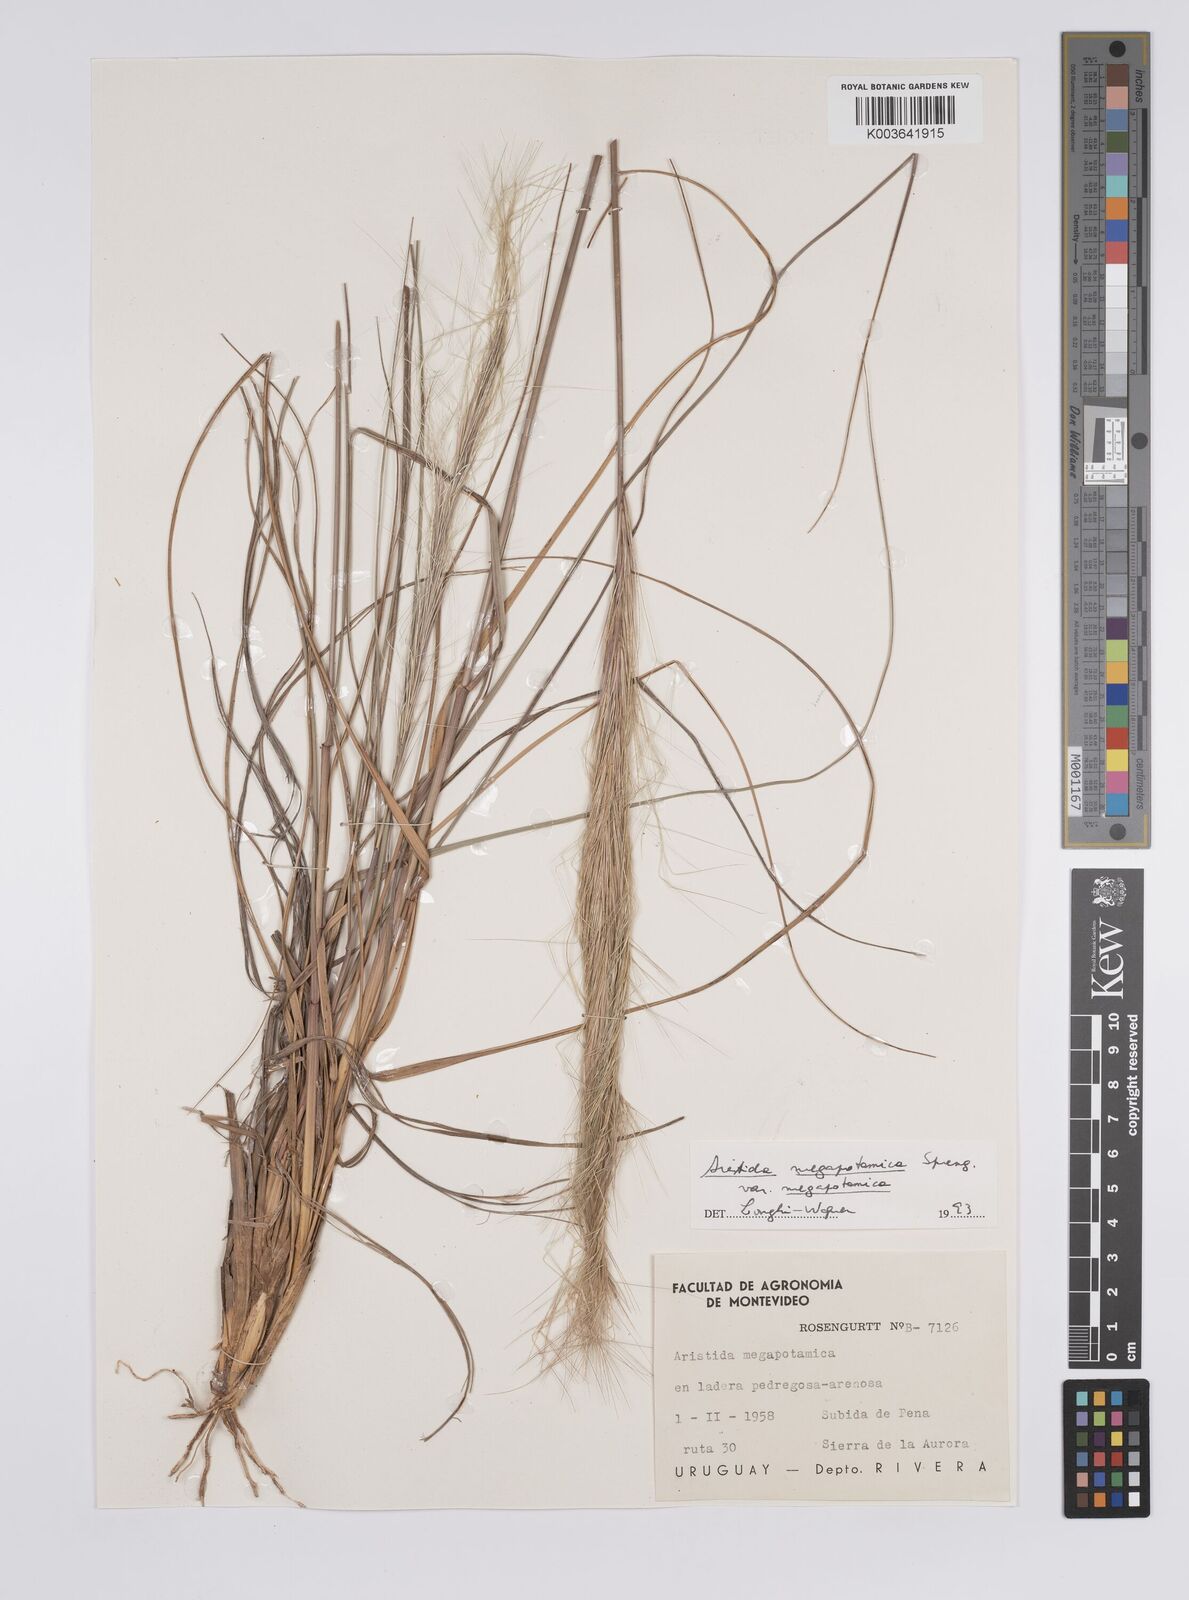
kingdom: Plantae
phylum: Tracheophyta
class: Liliopsida
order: Poales
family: Poaceae
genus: Aristida
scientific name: Aristida megapotamica
